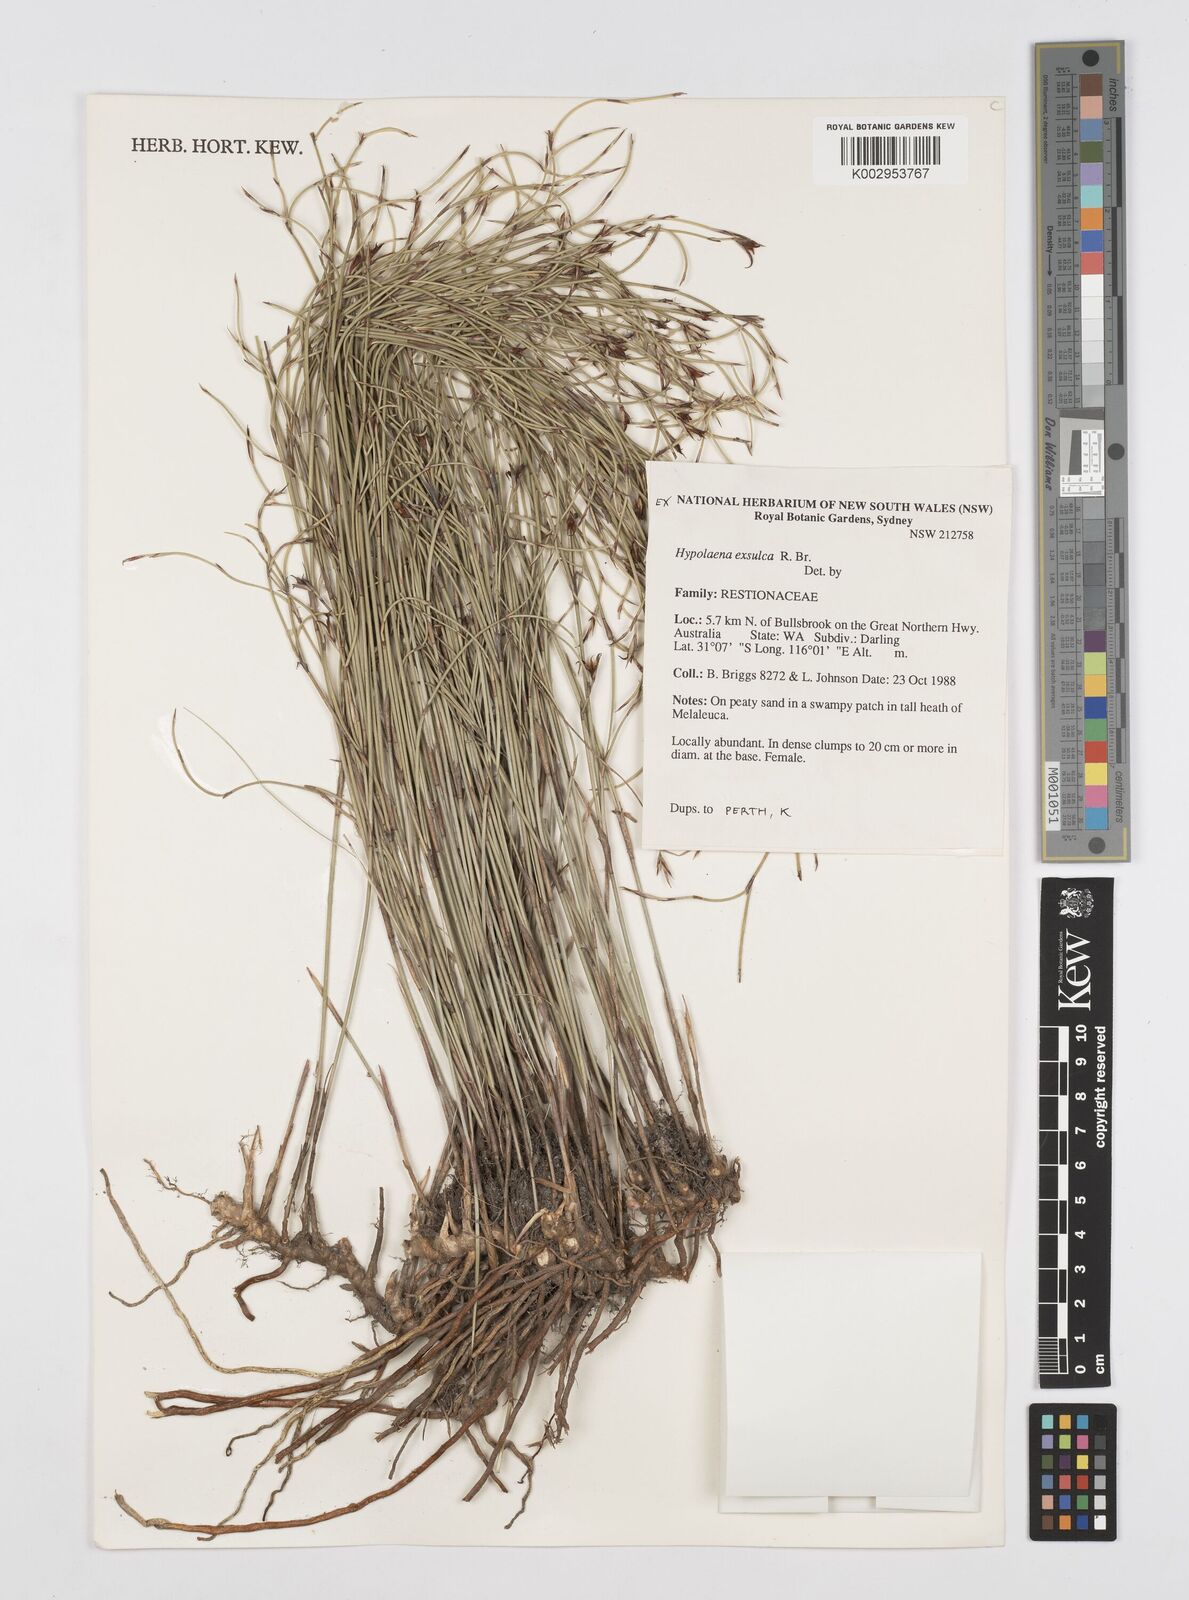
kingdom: Plantae
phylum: Tracheophyta
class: Liliopsida
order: Poales
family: Restionaceae
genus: Hypolaena
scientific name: Hypolaena exsulca
